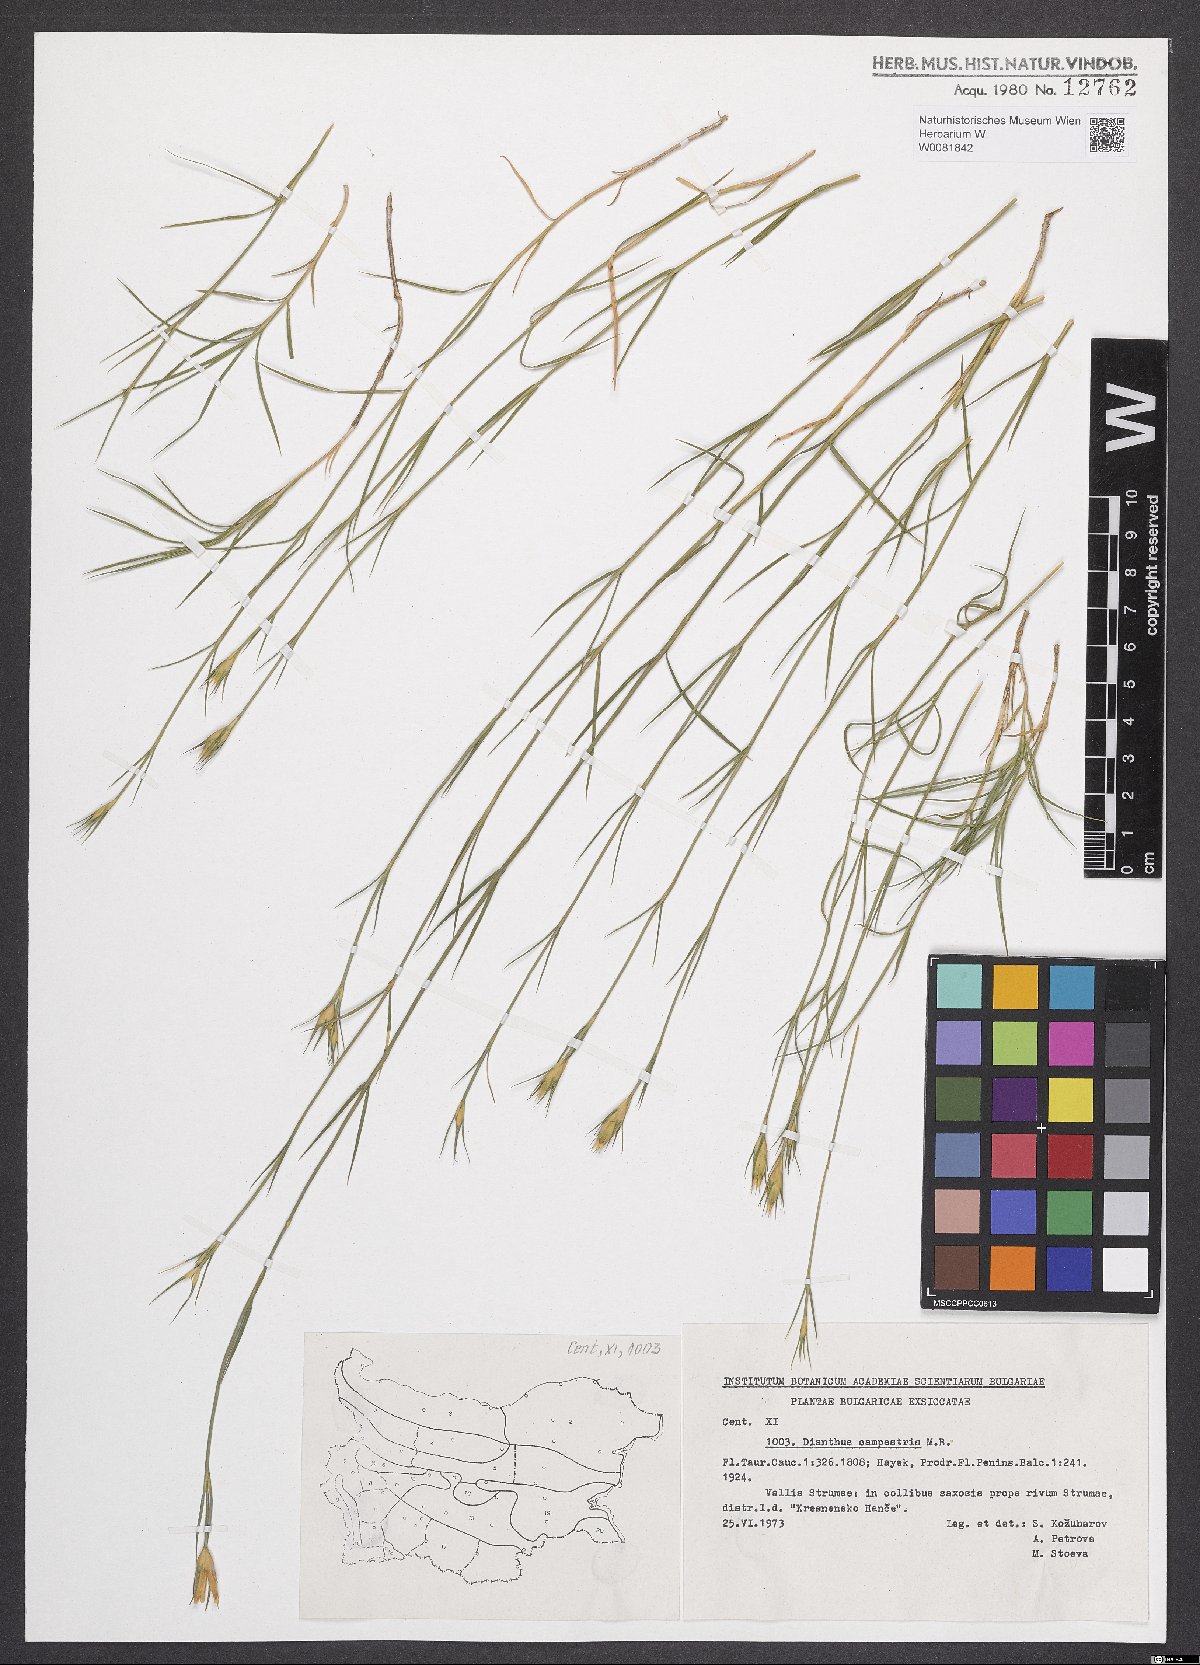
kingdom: Plantae
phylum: Tracheophyta
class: Magnoliopsida
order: Caryophyllales
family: Caryophyllaceae
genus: Dianthus
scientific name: Dianthus campestris
